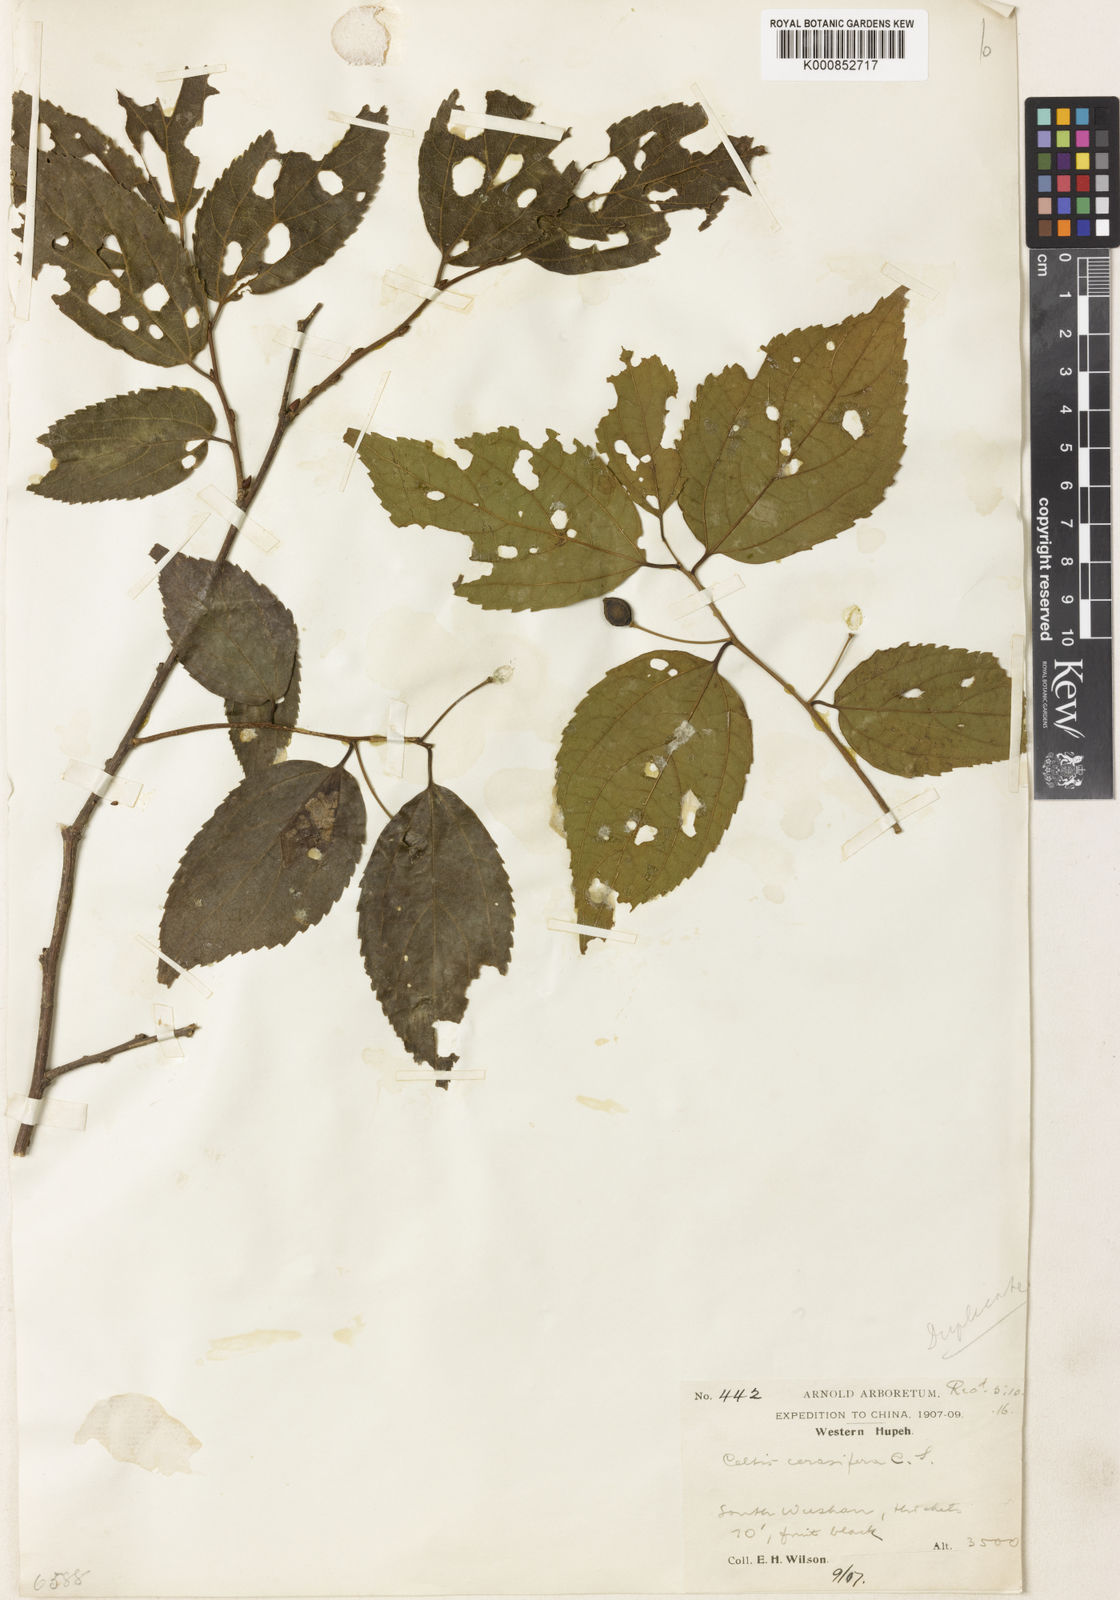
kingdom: Plantae
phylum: Tracheophyta
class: Magnoliopsida
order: Rosales
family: Cannabaceae
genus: Celtis
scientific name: Celtis cerasifera
